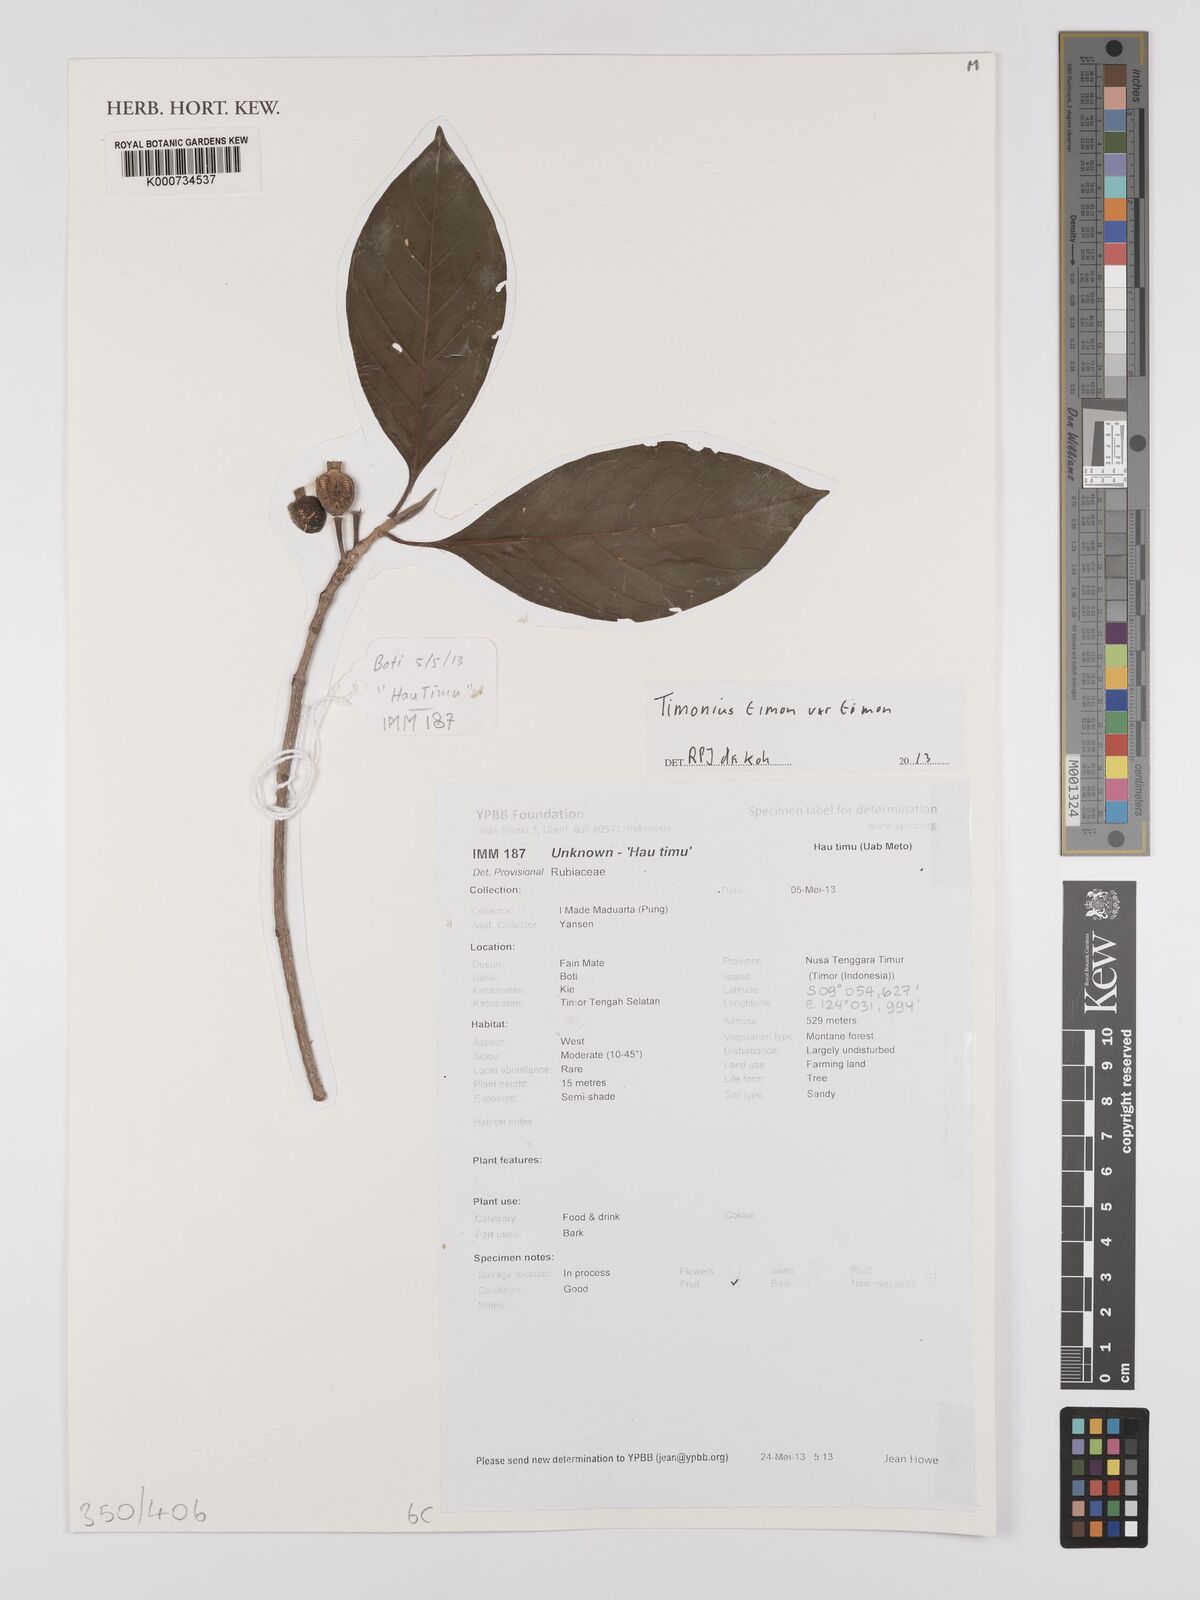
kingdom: Plantae
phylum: Tracheophyta
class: Magnoliopsida
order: Gentianales
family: Rubiaceae
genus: Timonius
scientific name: Timonius timon
